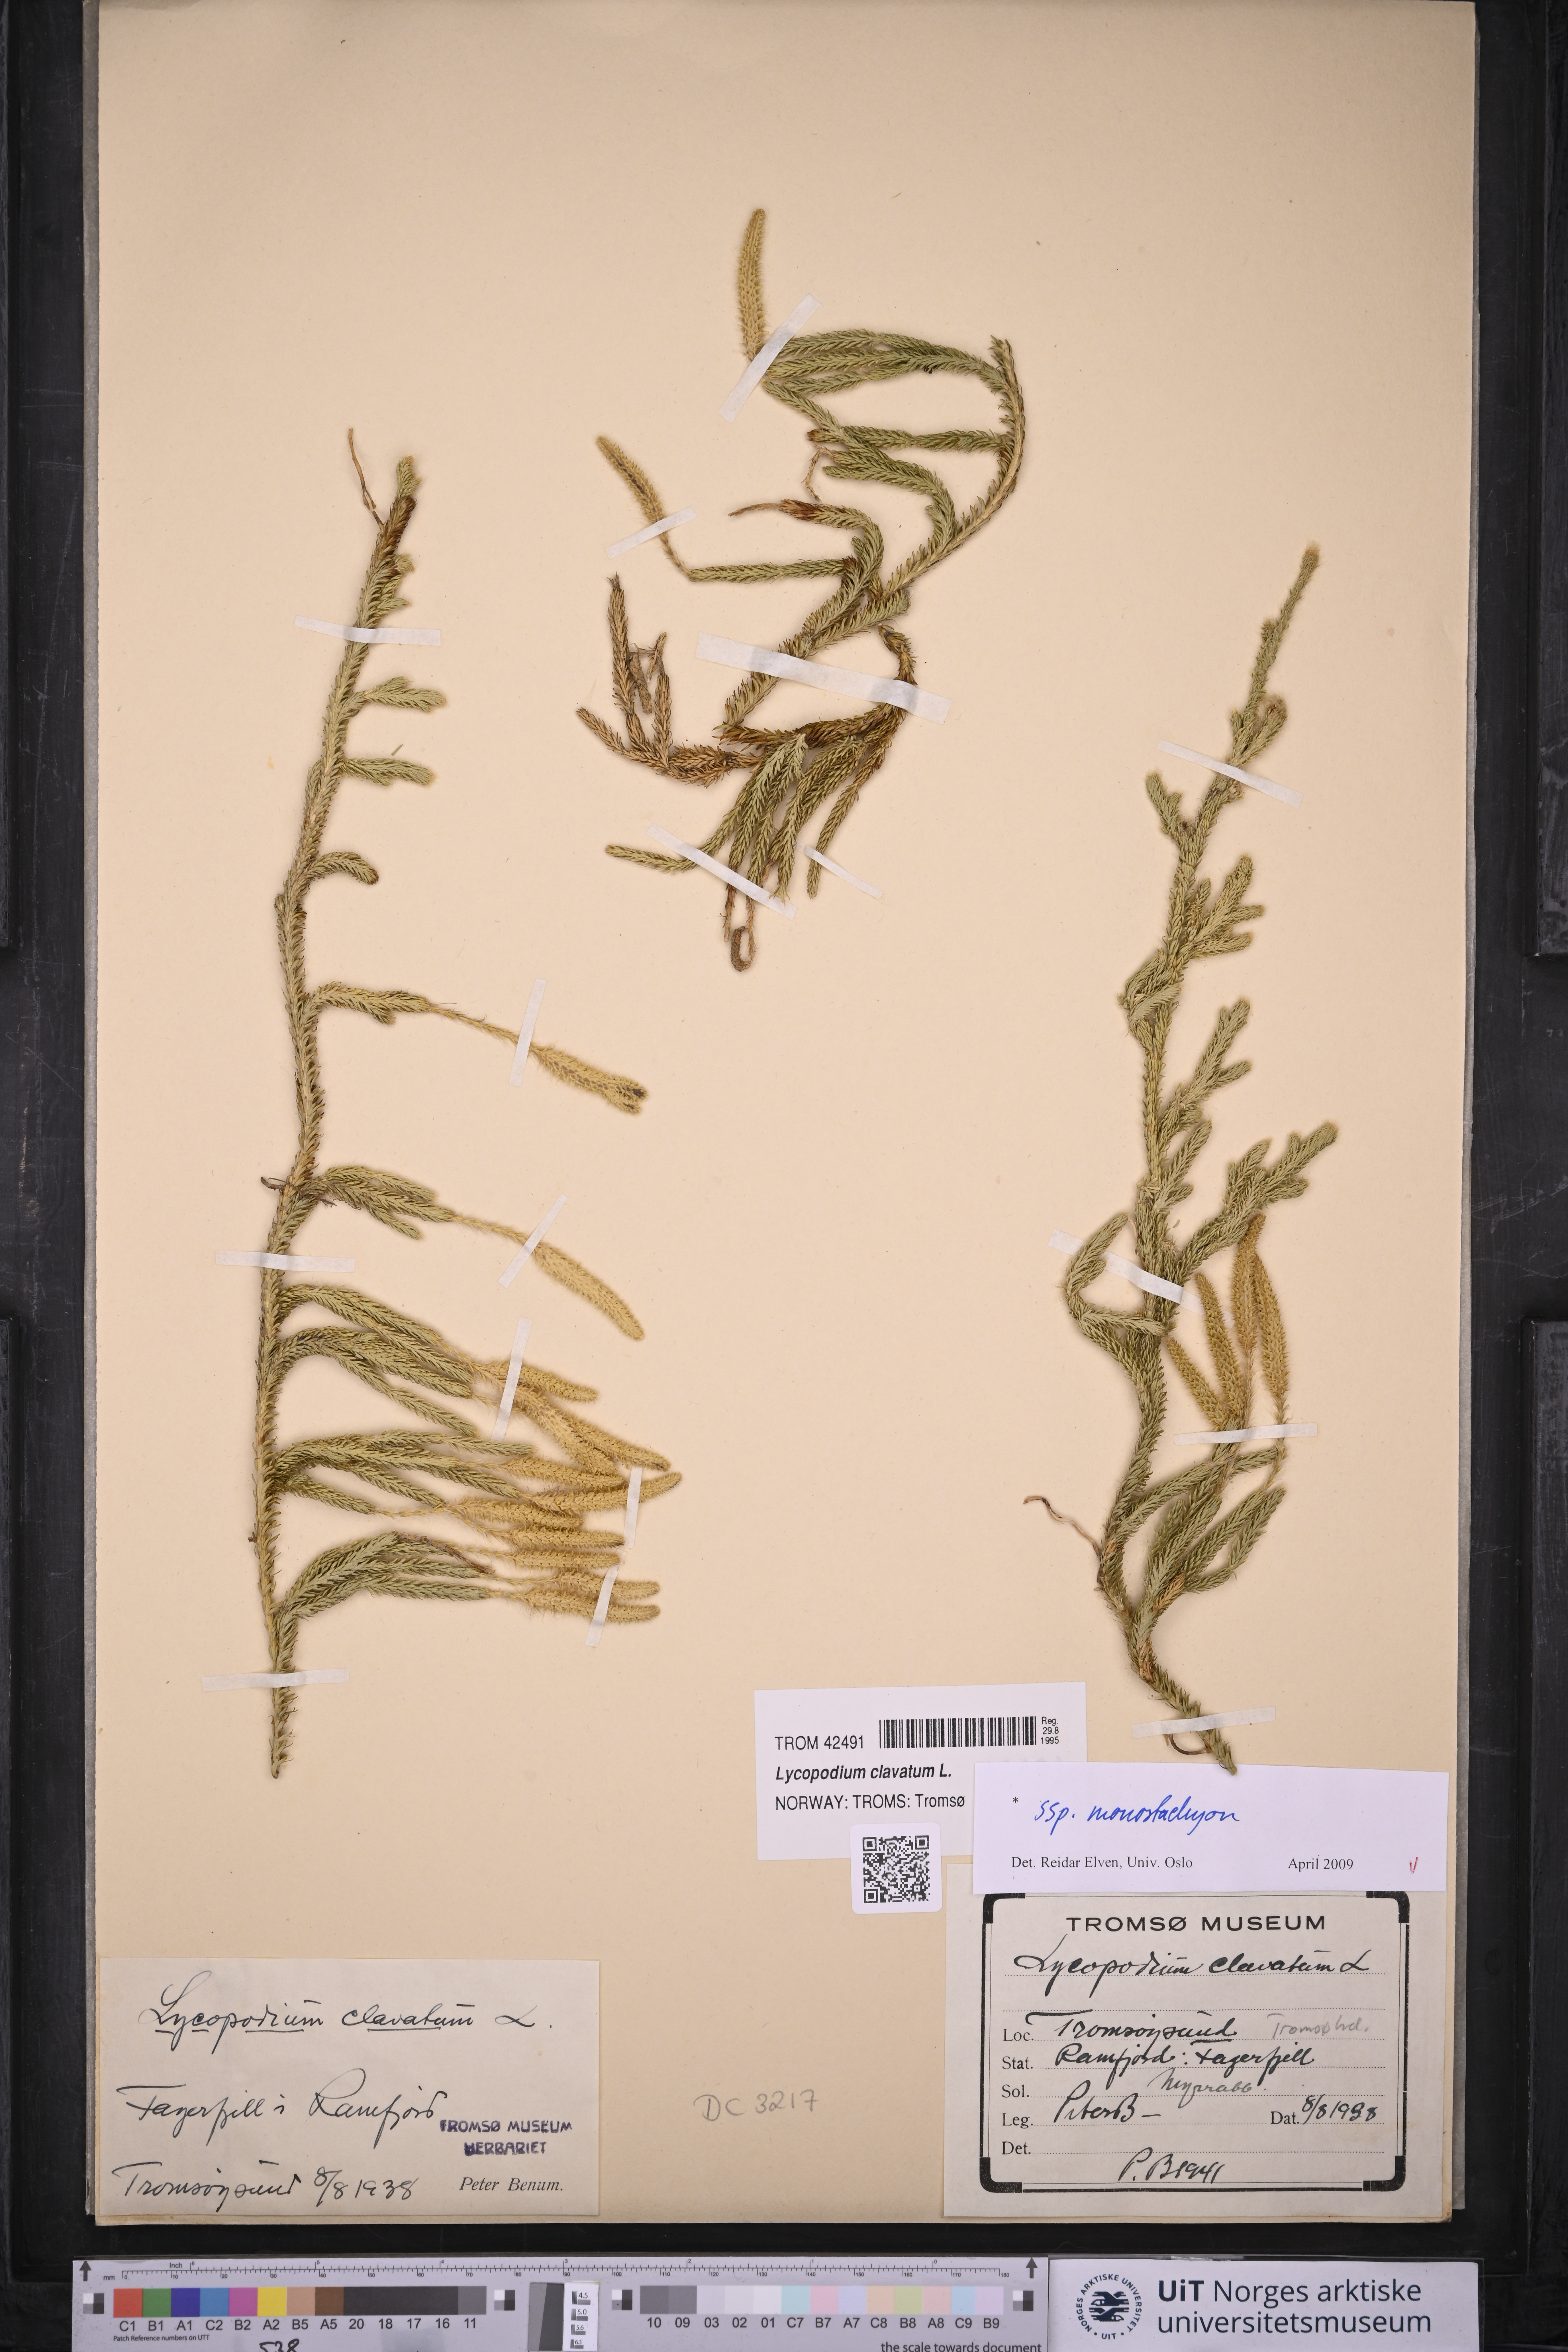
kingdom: Plantae
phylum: Tracheophyta
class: Lycopodiopsida
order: Lycopodiales
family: Lycopodiaceae
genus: Lycopodium
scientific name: Lycopodium lagopus
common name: One-cone clubmoss
